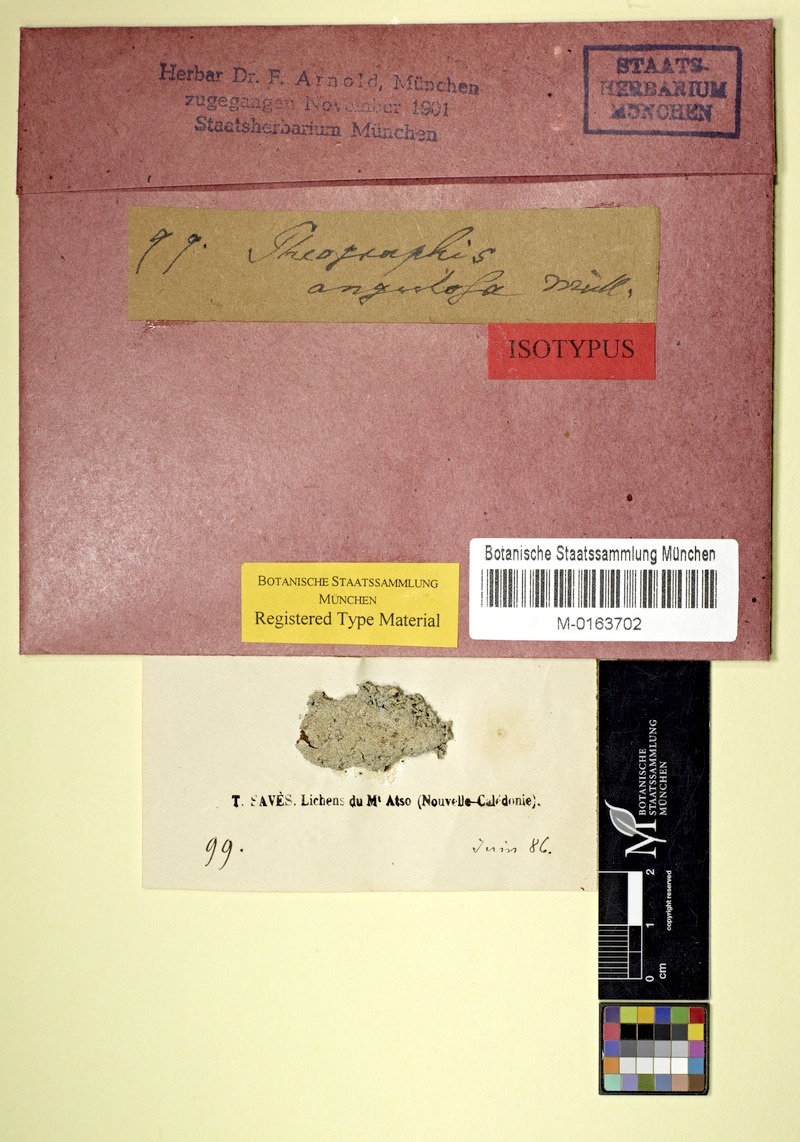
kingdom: Fungi
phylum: Ascomycota
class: Lecanoromycetes
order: Ostropales
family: Graphidaceae
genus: Phaeographis
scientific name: Phaeographis angulosa
